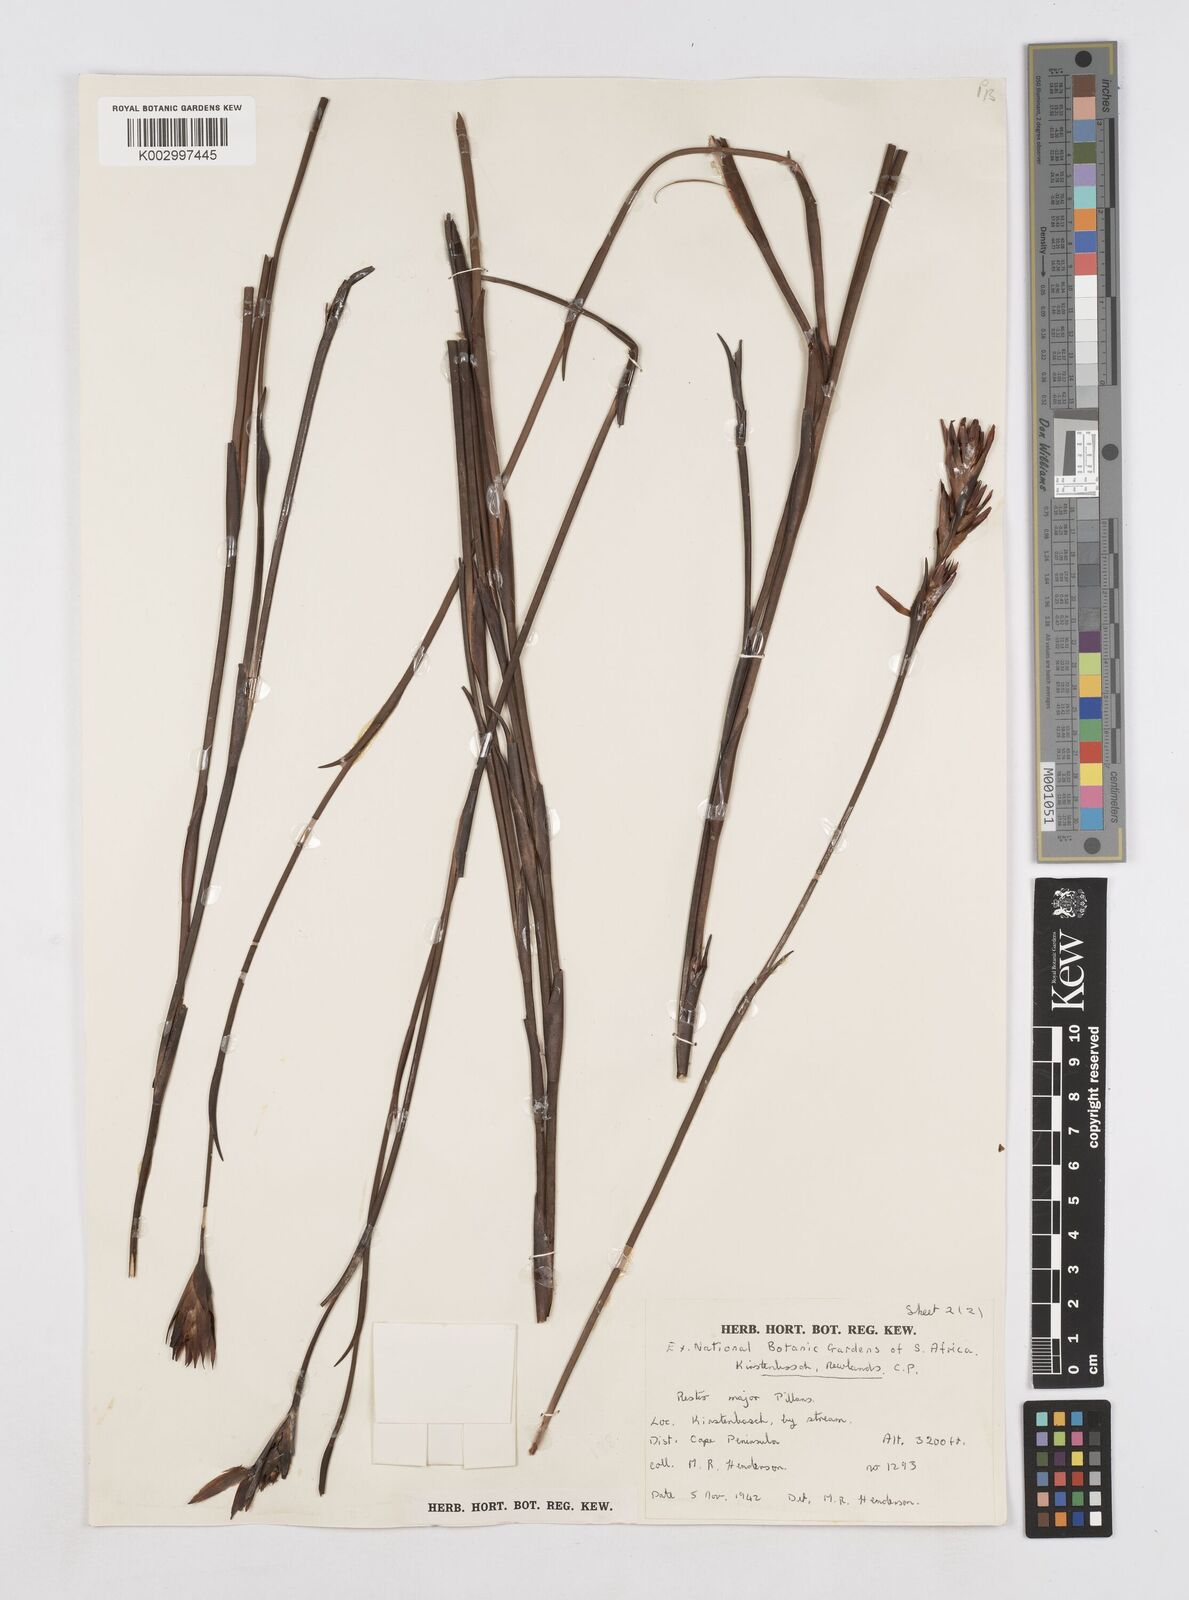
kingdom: Plantae
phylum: Tracheophyta
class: Liliopsida
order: Poales
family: Restionaceae
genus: Platycaulos
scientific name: Platycaulos major
